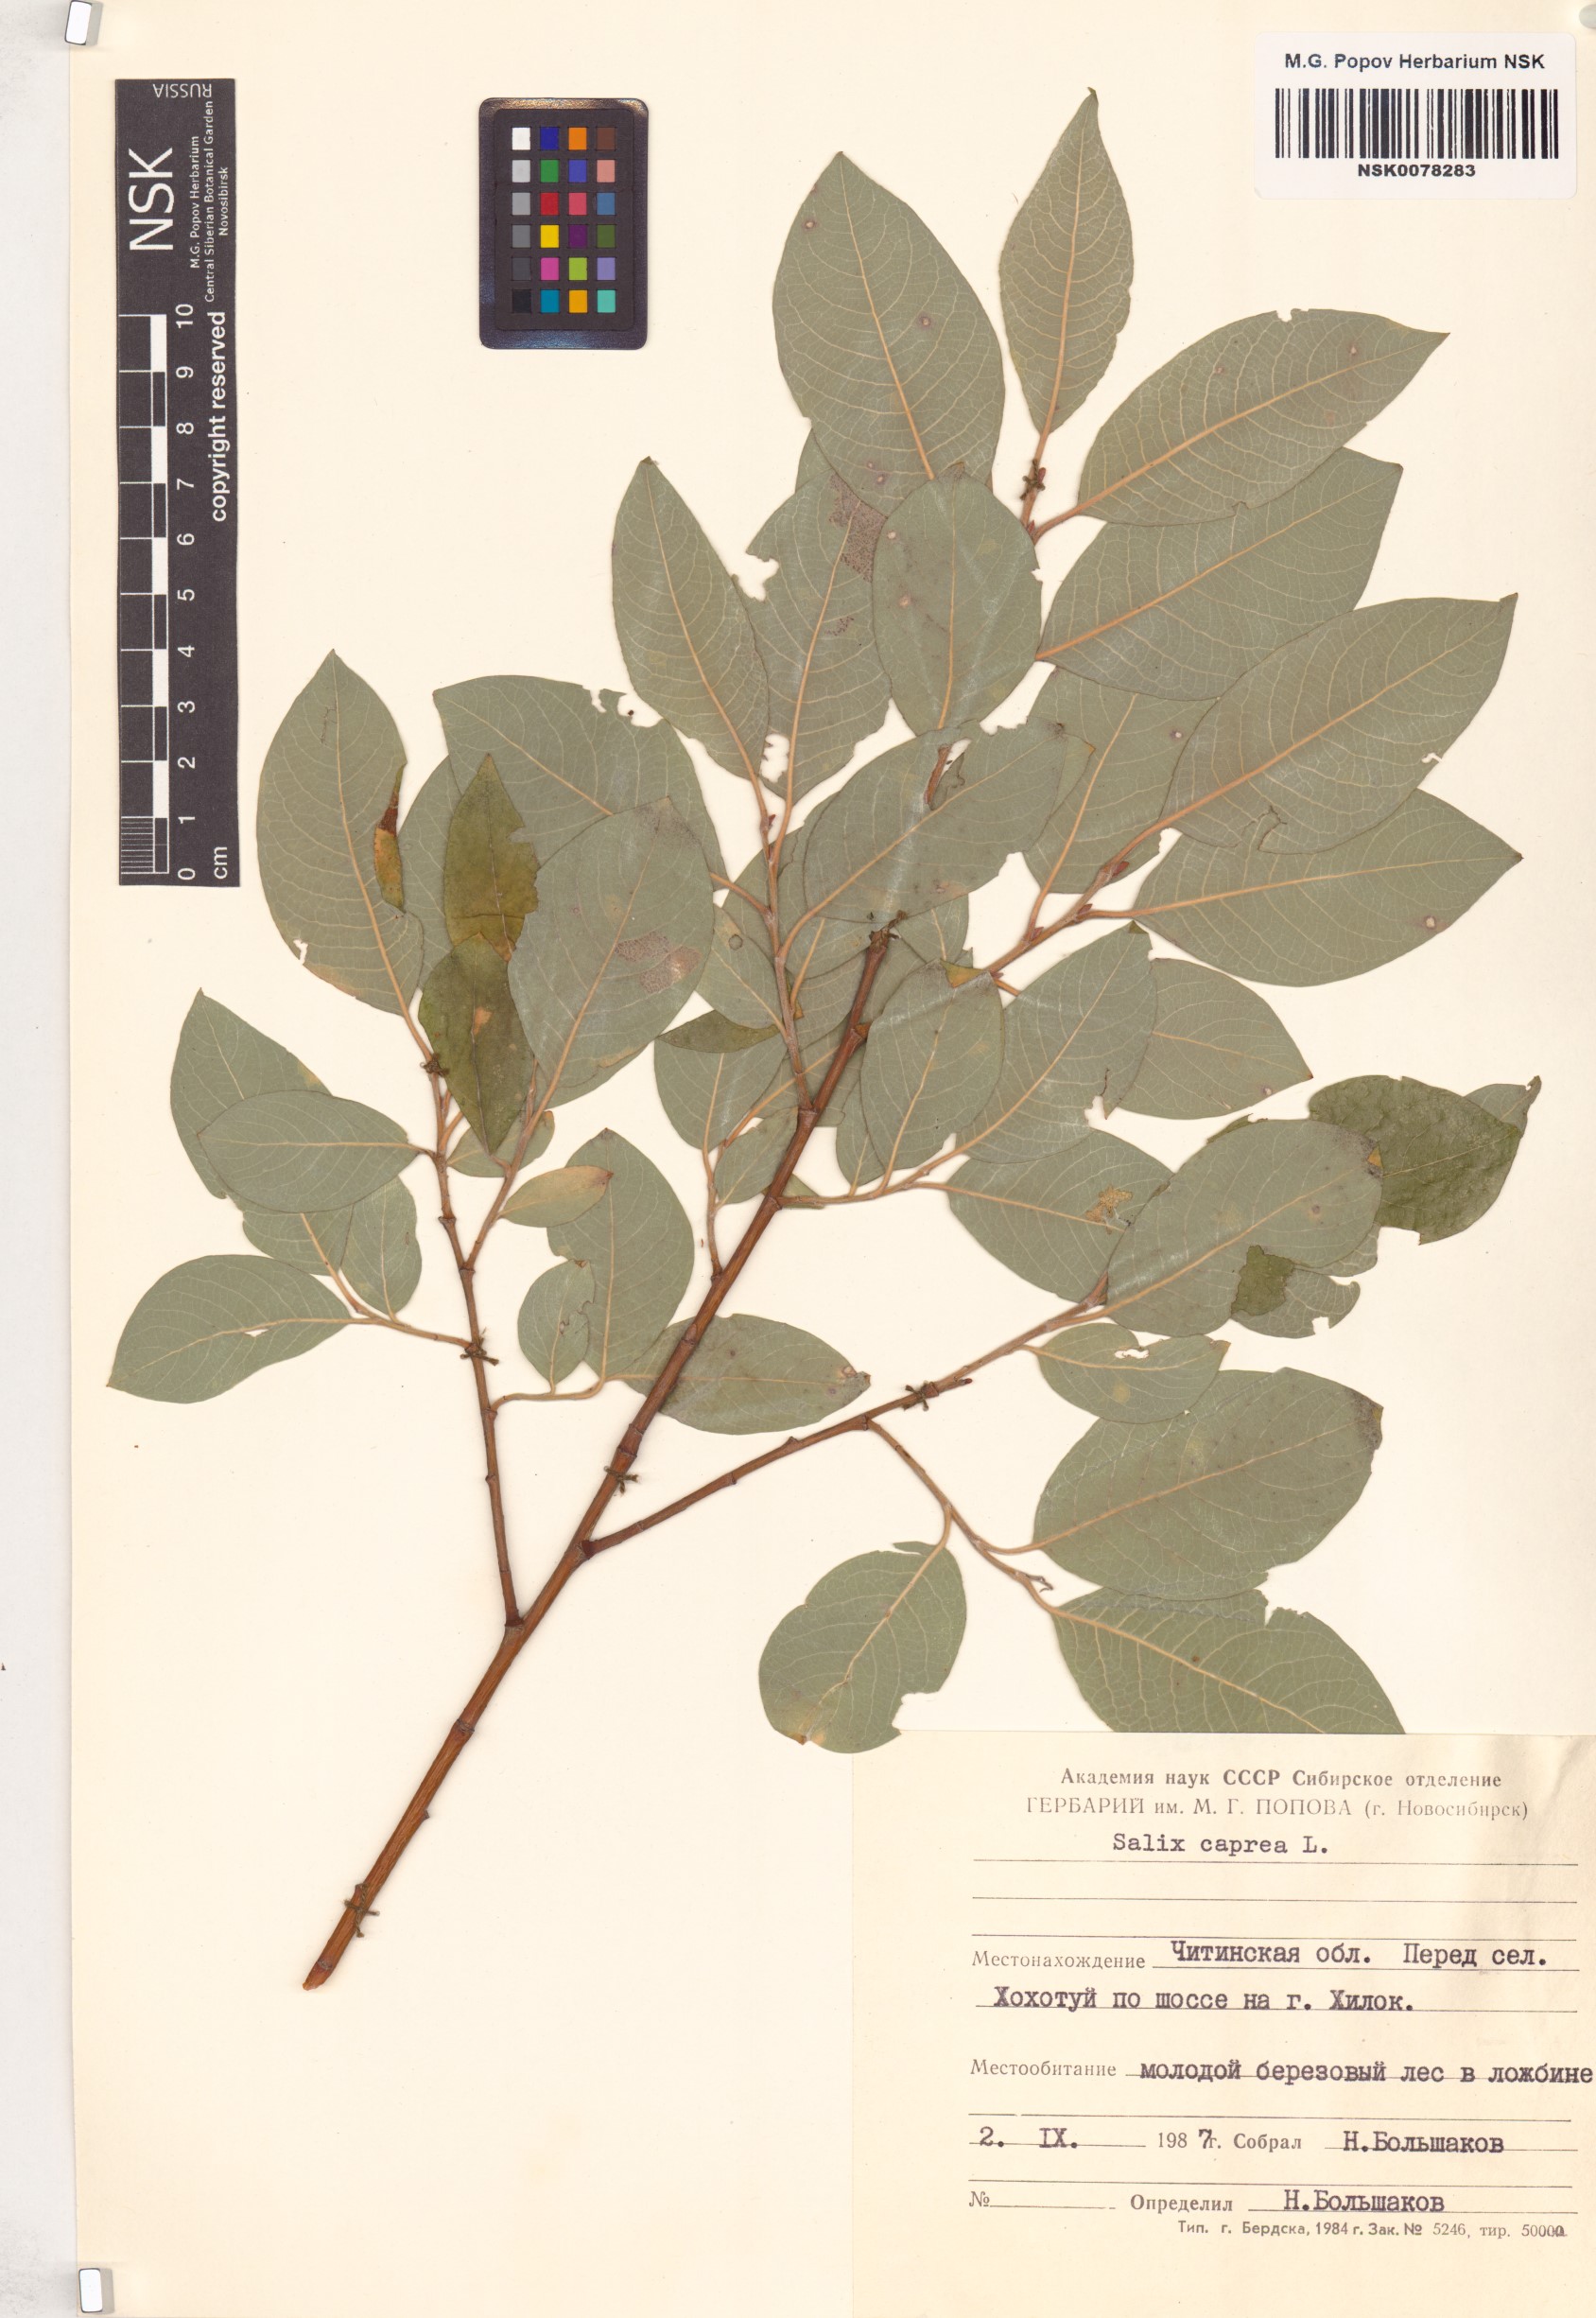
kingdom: Plantae
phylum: Tracheophyta
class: Magnoliopsida
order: Malpighiales
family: Salicaceae
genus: Salix
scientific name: Salix caprea
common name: Goat willow
